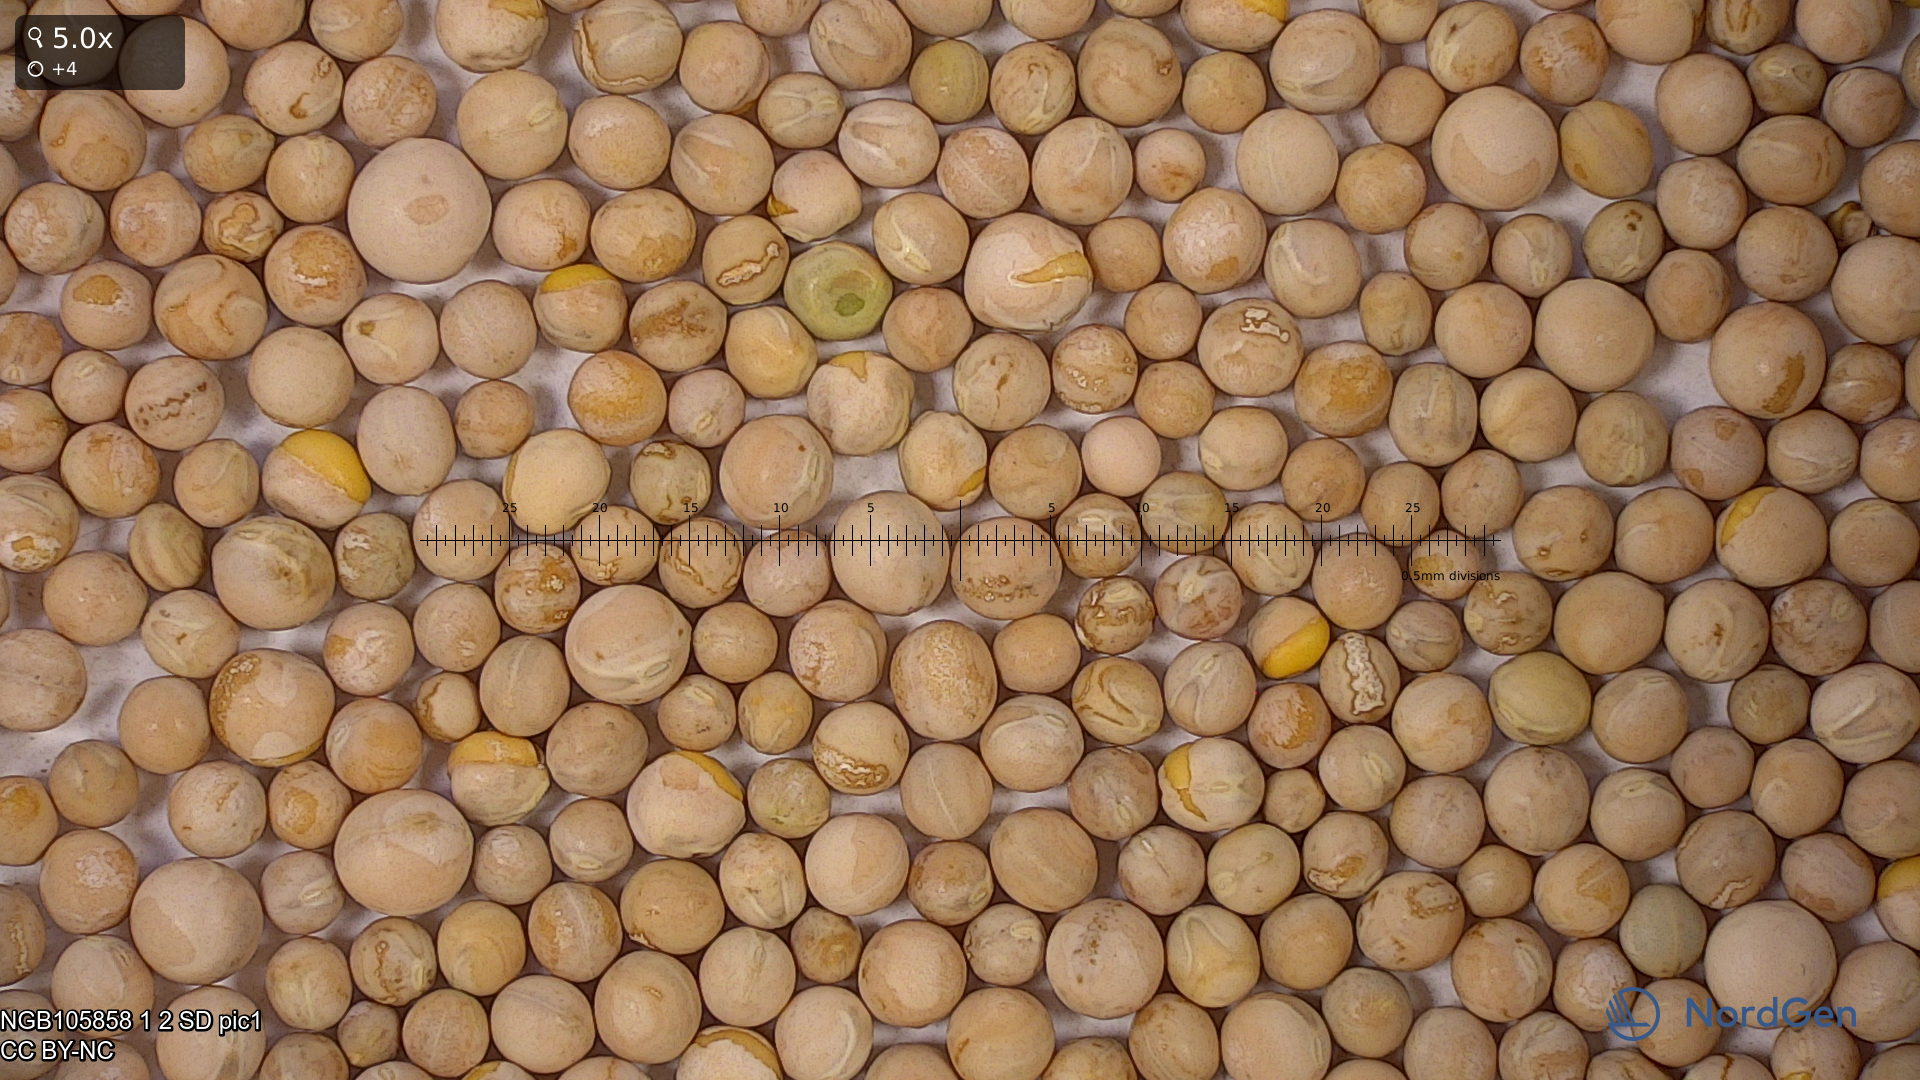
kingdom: Plantae
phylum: Tracheophyta
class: Magnoliopsida
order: Fabales
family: Fabaceae
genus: Lathyrus
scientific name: Lathyrus oleraceus
